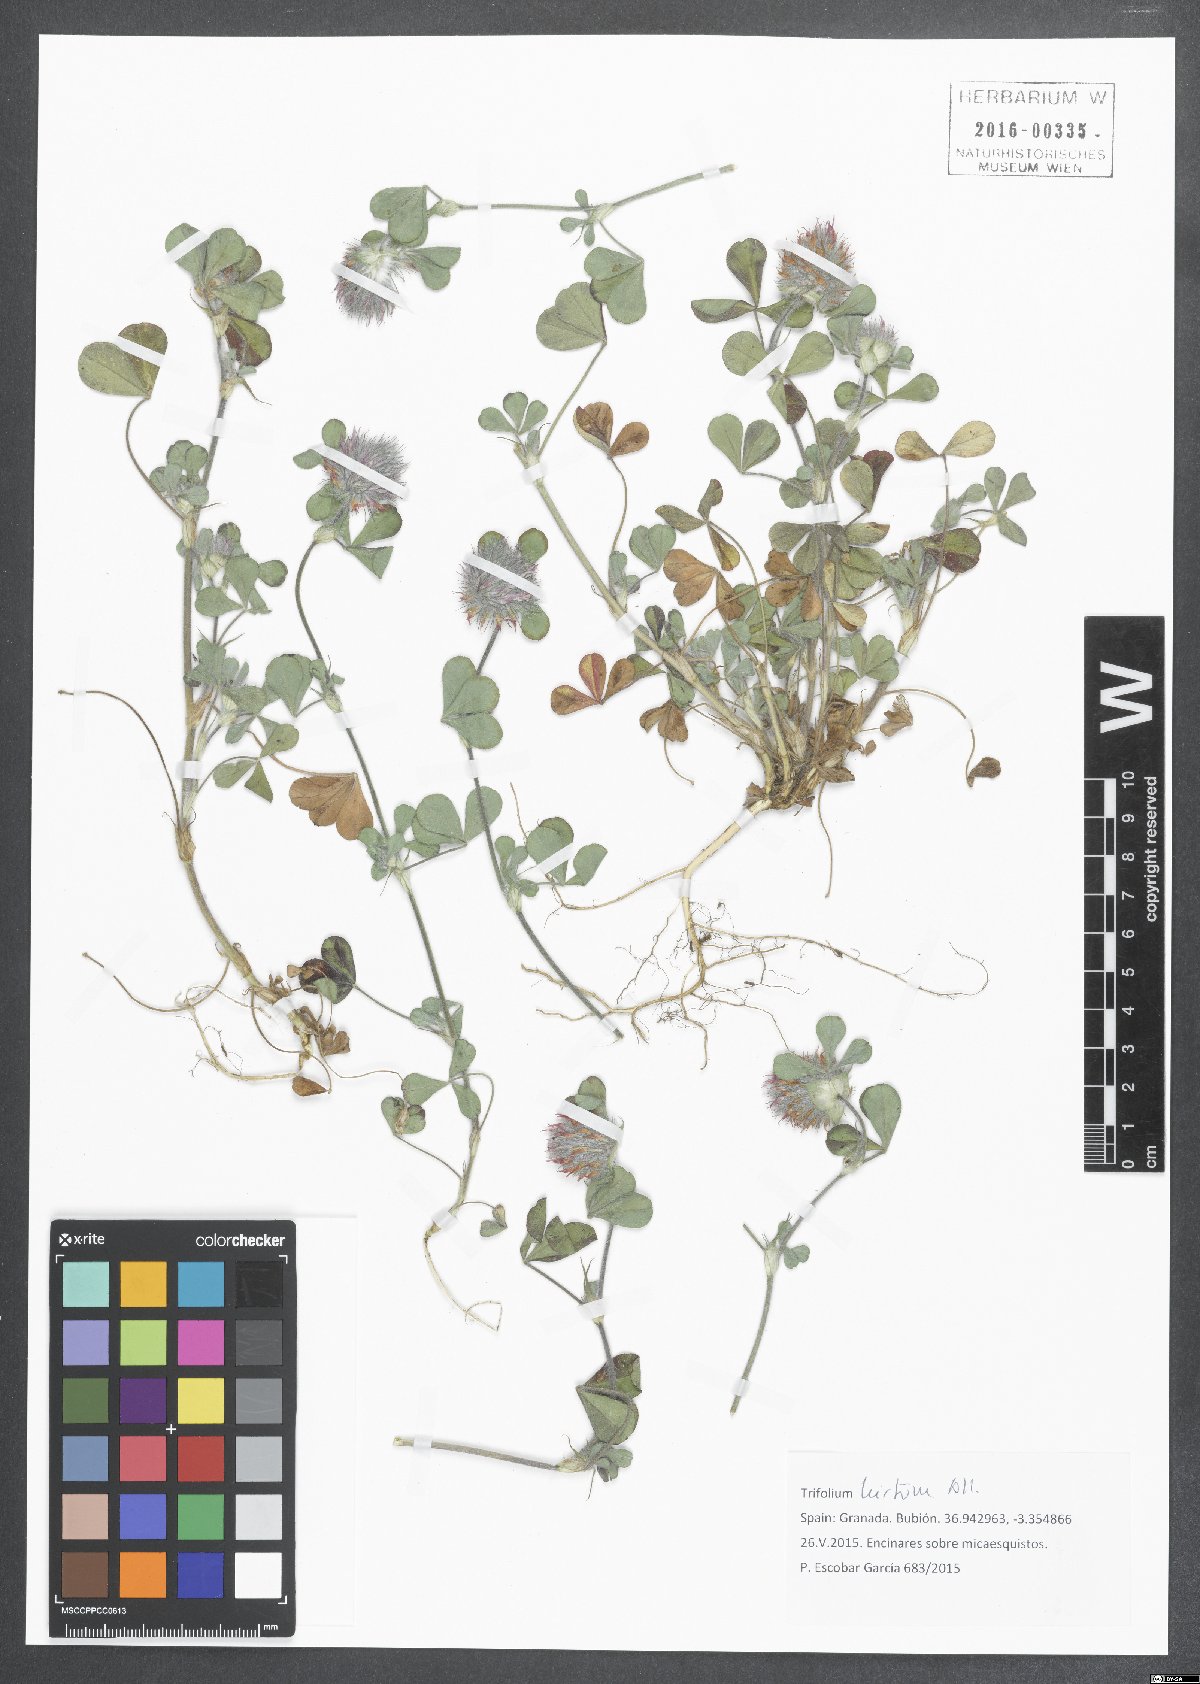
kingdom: Plantae
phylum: Tracheophyta
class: Magnoliopsida
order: Fabales
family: Fabaceae
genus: Trifolium
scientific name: Trifolium hirtum
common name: Rose clover
